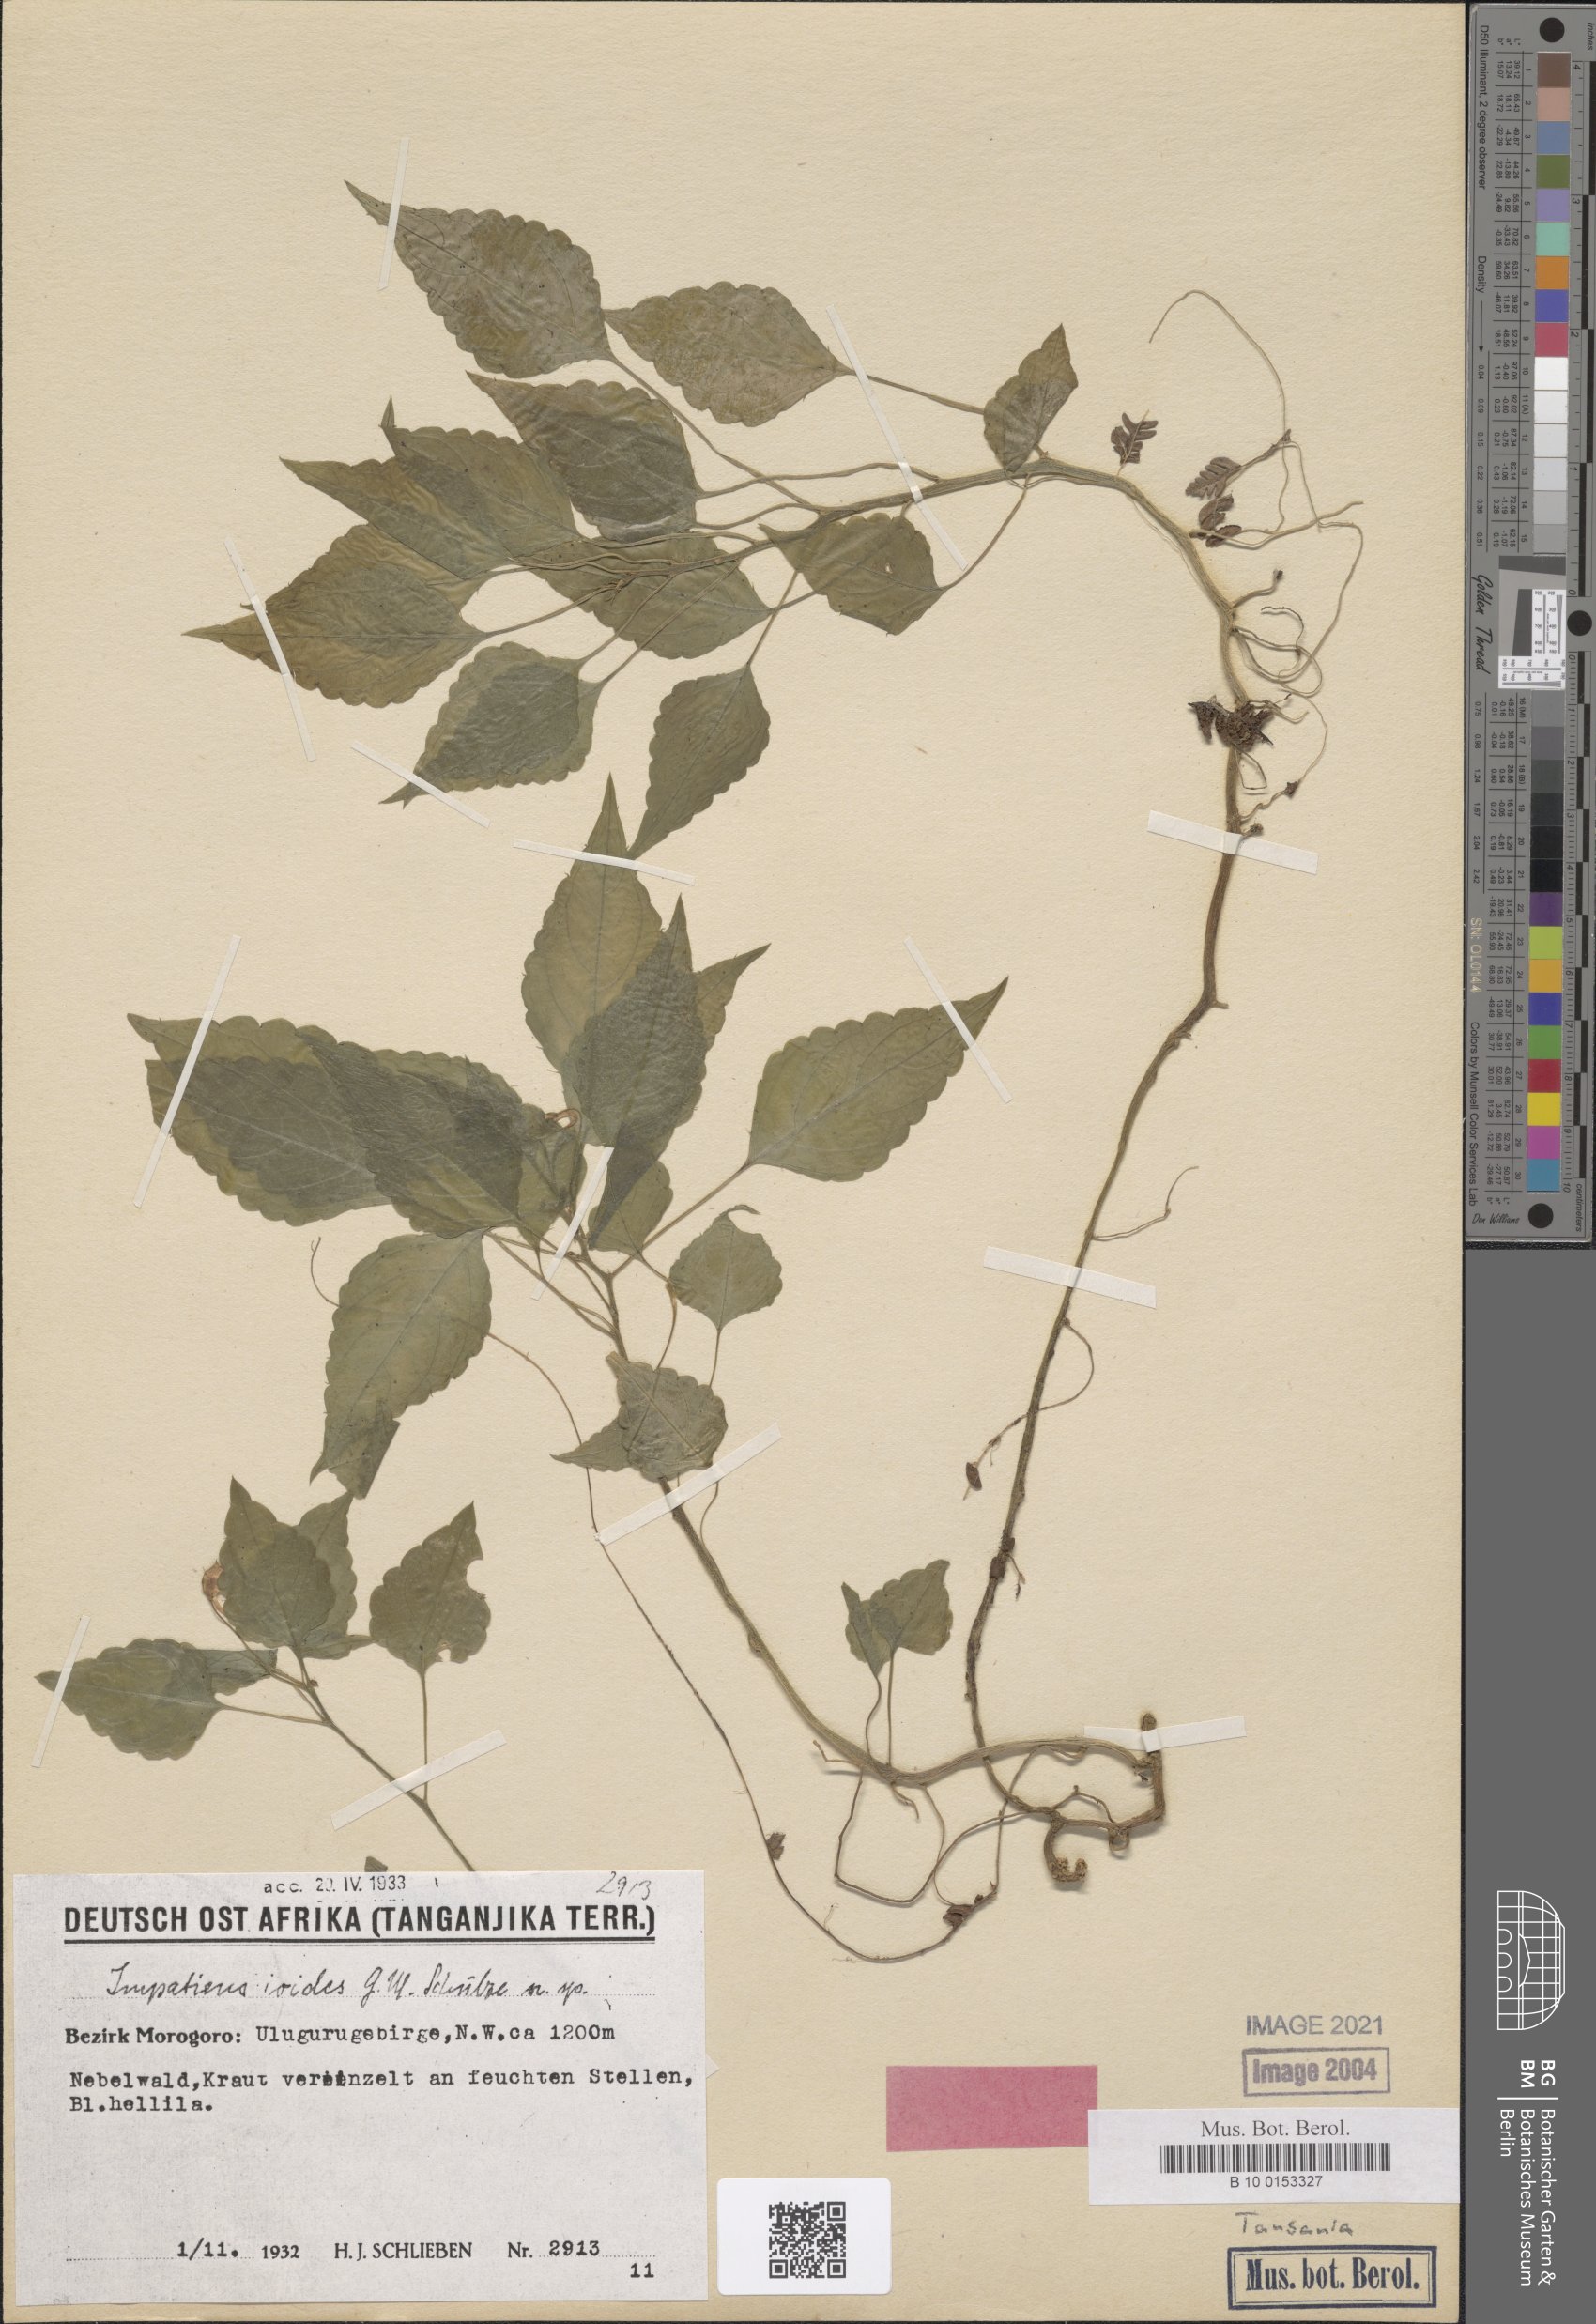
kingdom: Plantae
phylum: Tracheophyta
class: Magnoliopsida
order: Ericales
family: Balsaminaceae
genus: Impatiens
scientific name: Impatiens ioides
